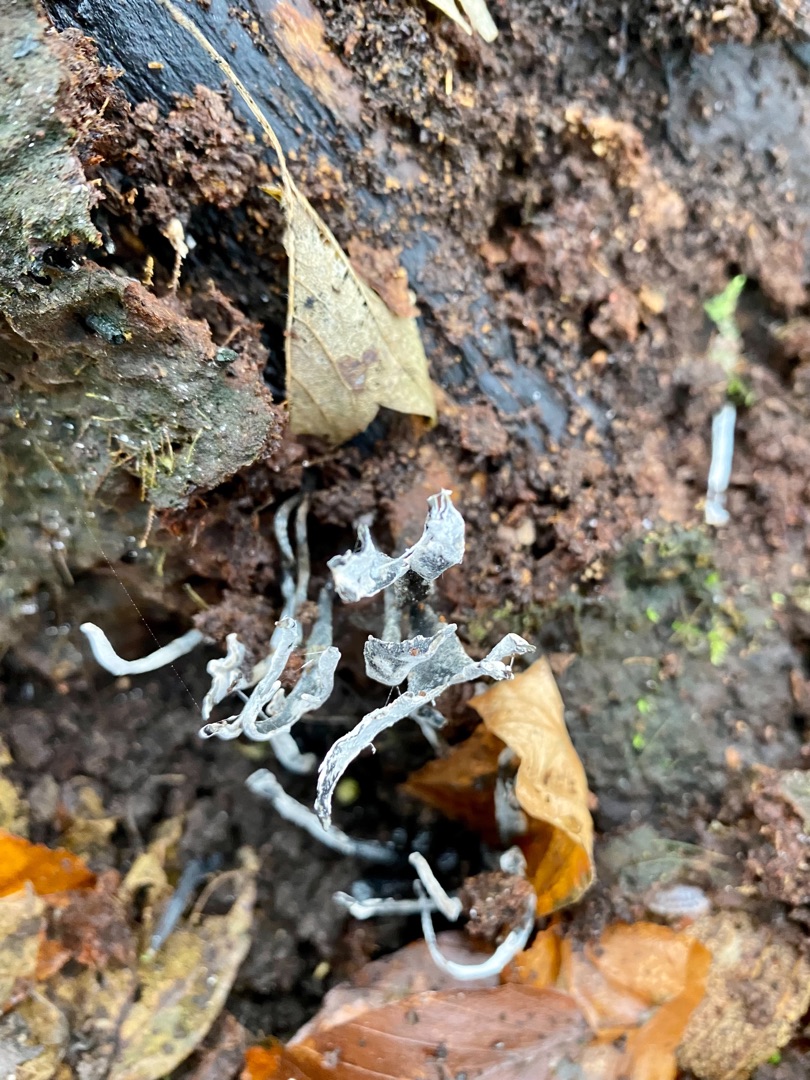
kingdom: Fungi
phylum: Ascomycota
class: Sordariomycetes
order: Xylariales
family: Xylariaceae
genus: Xylaria
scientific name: Xylaria hypoxylon
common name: Grenet stødsvamp
